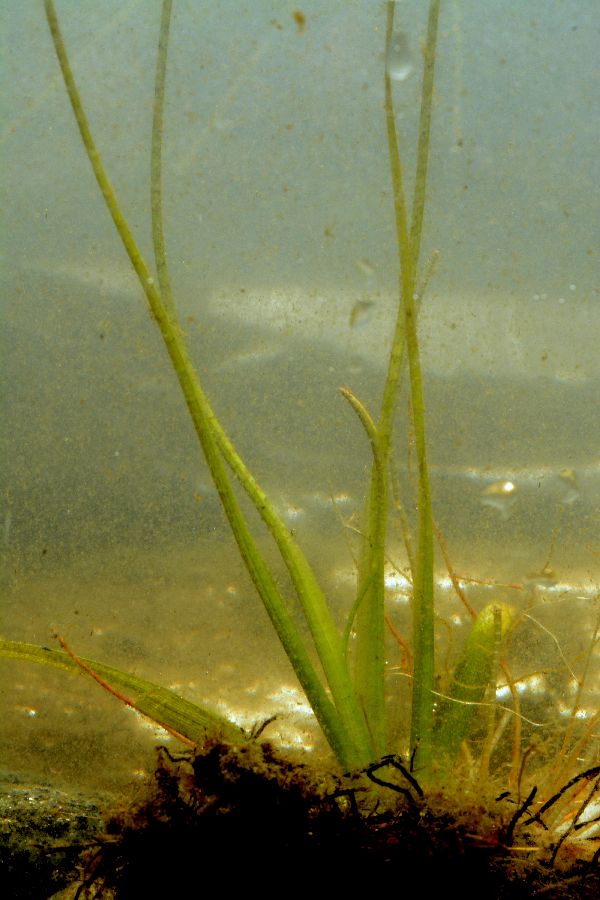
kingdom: Plantae
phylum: Tracheophyta
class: Liliopsida
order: Alismatales
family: Alismataceae
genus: Sagittaria
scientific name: Sagittaria natans
